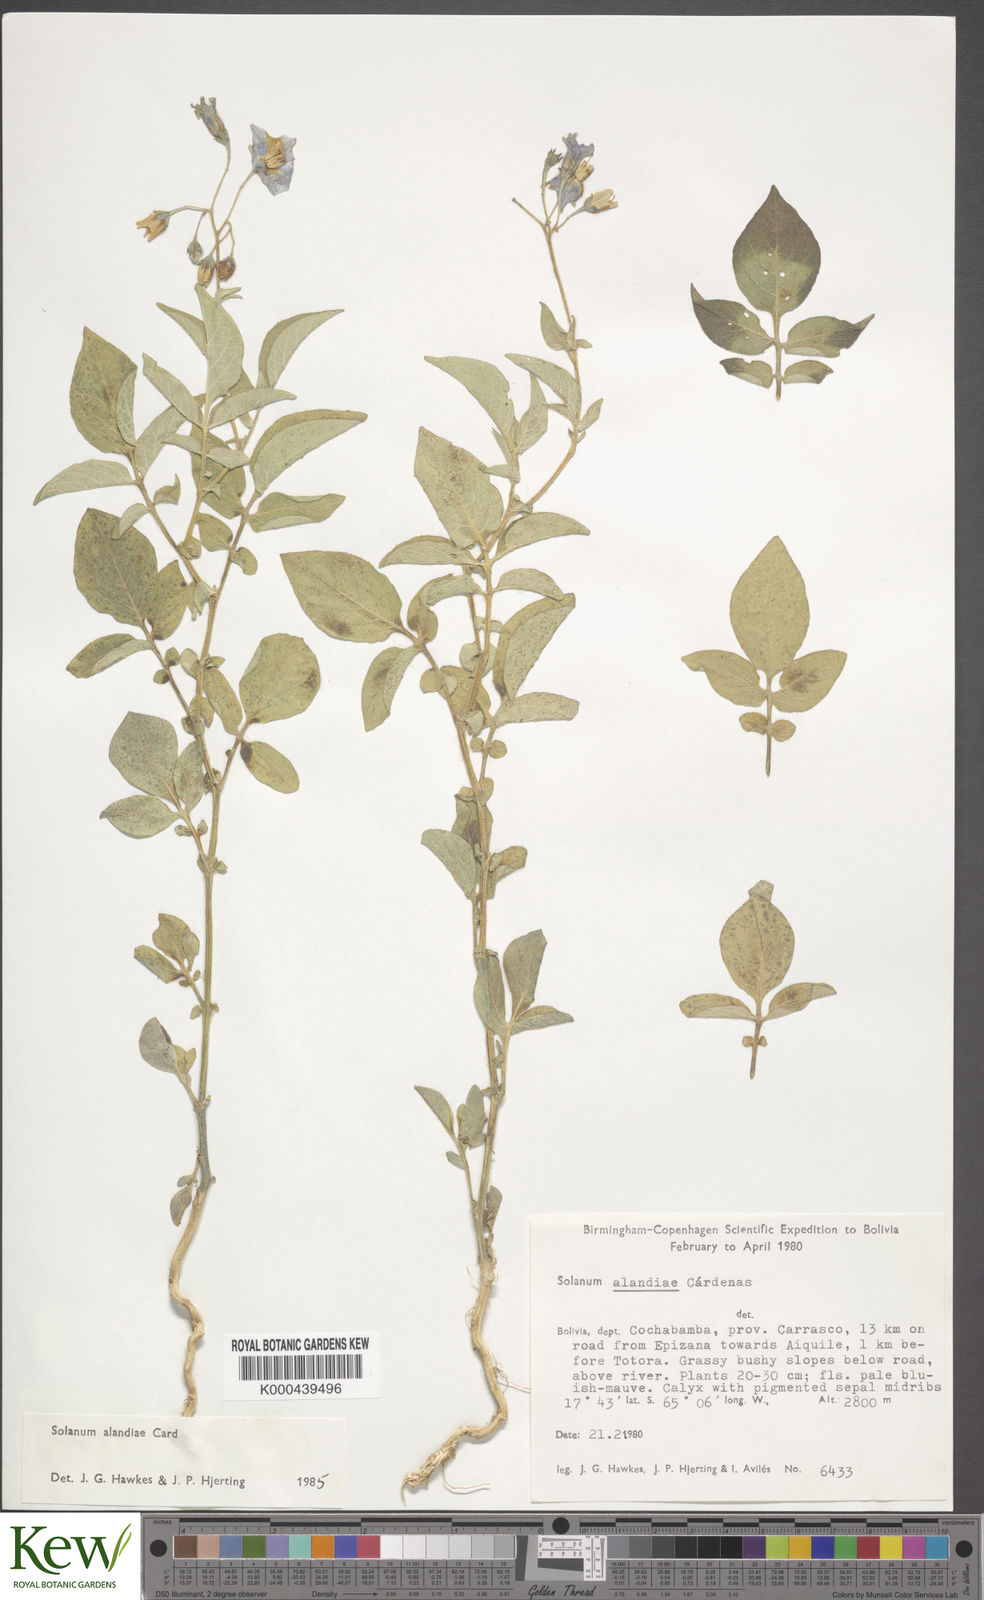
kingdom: Plantae
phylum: Tracheophyta
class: Magnoliopsida
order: Solanales
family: Solanaceae
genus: Solanum
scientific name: Solanum brevicaule
